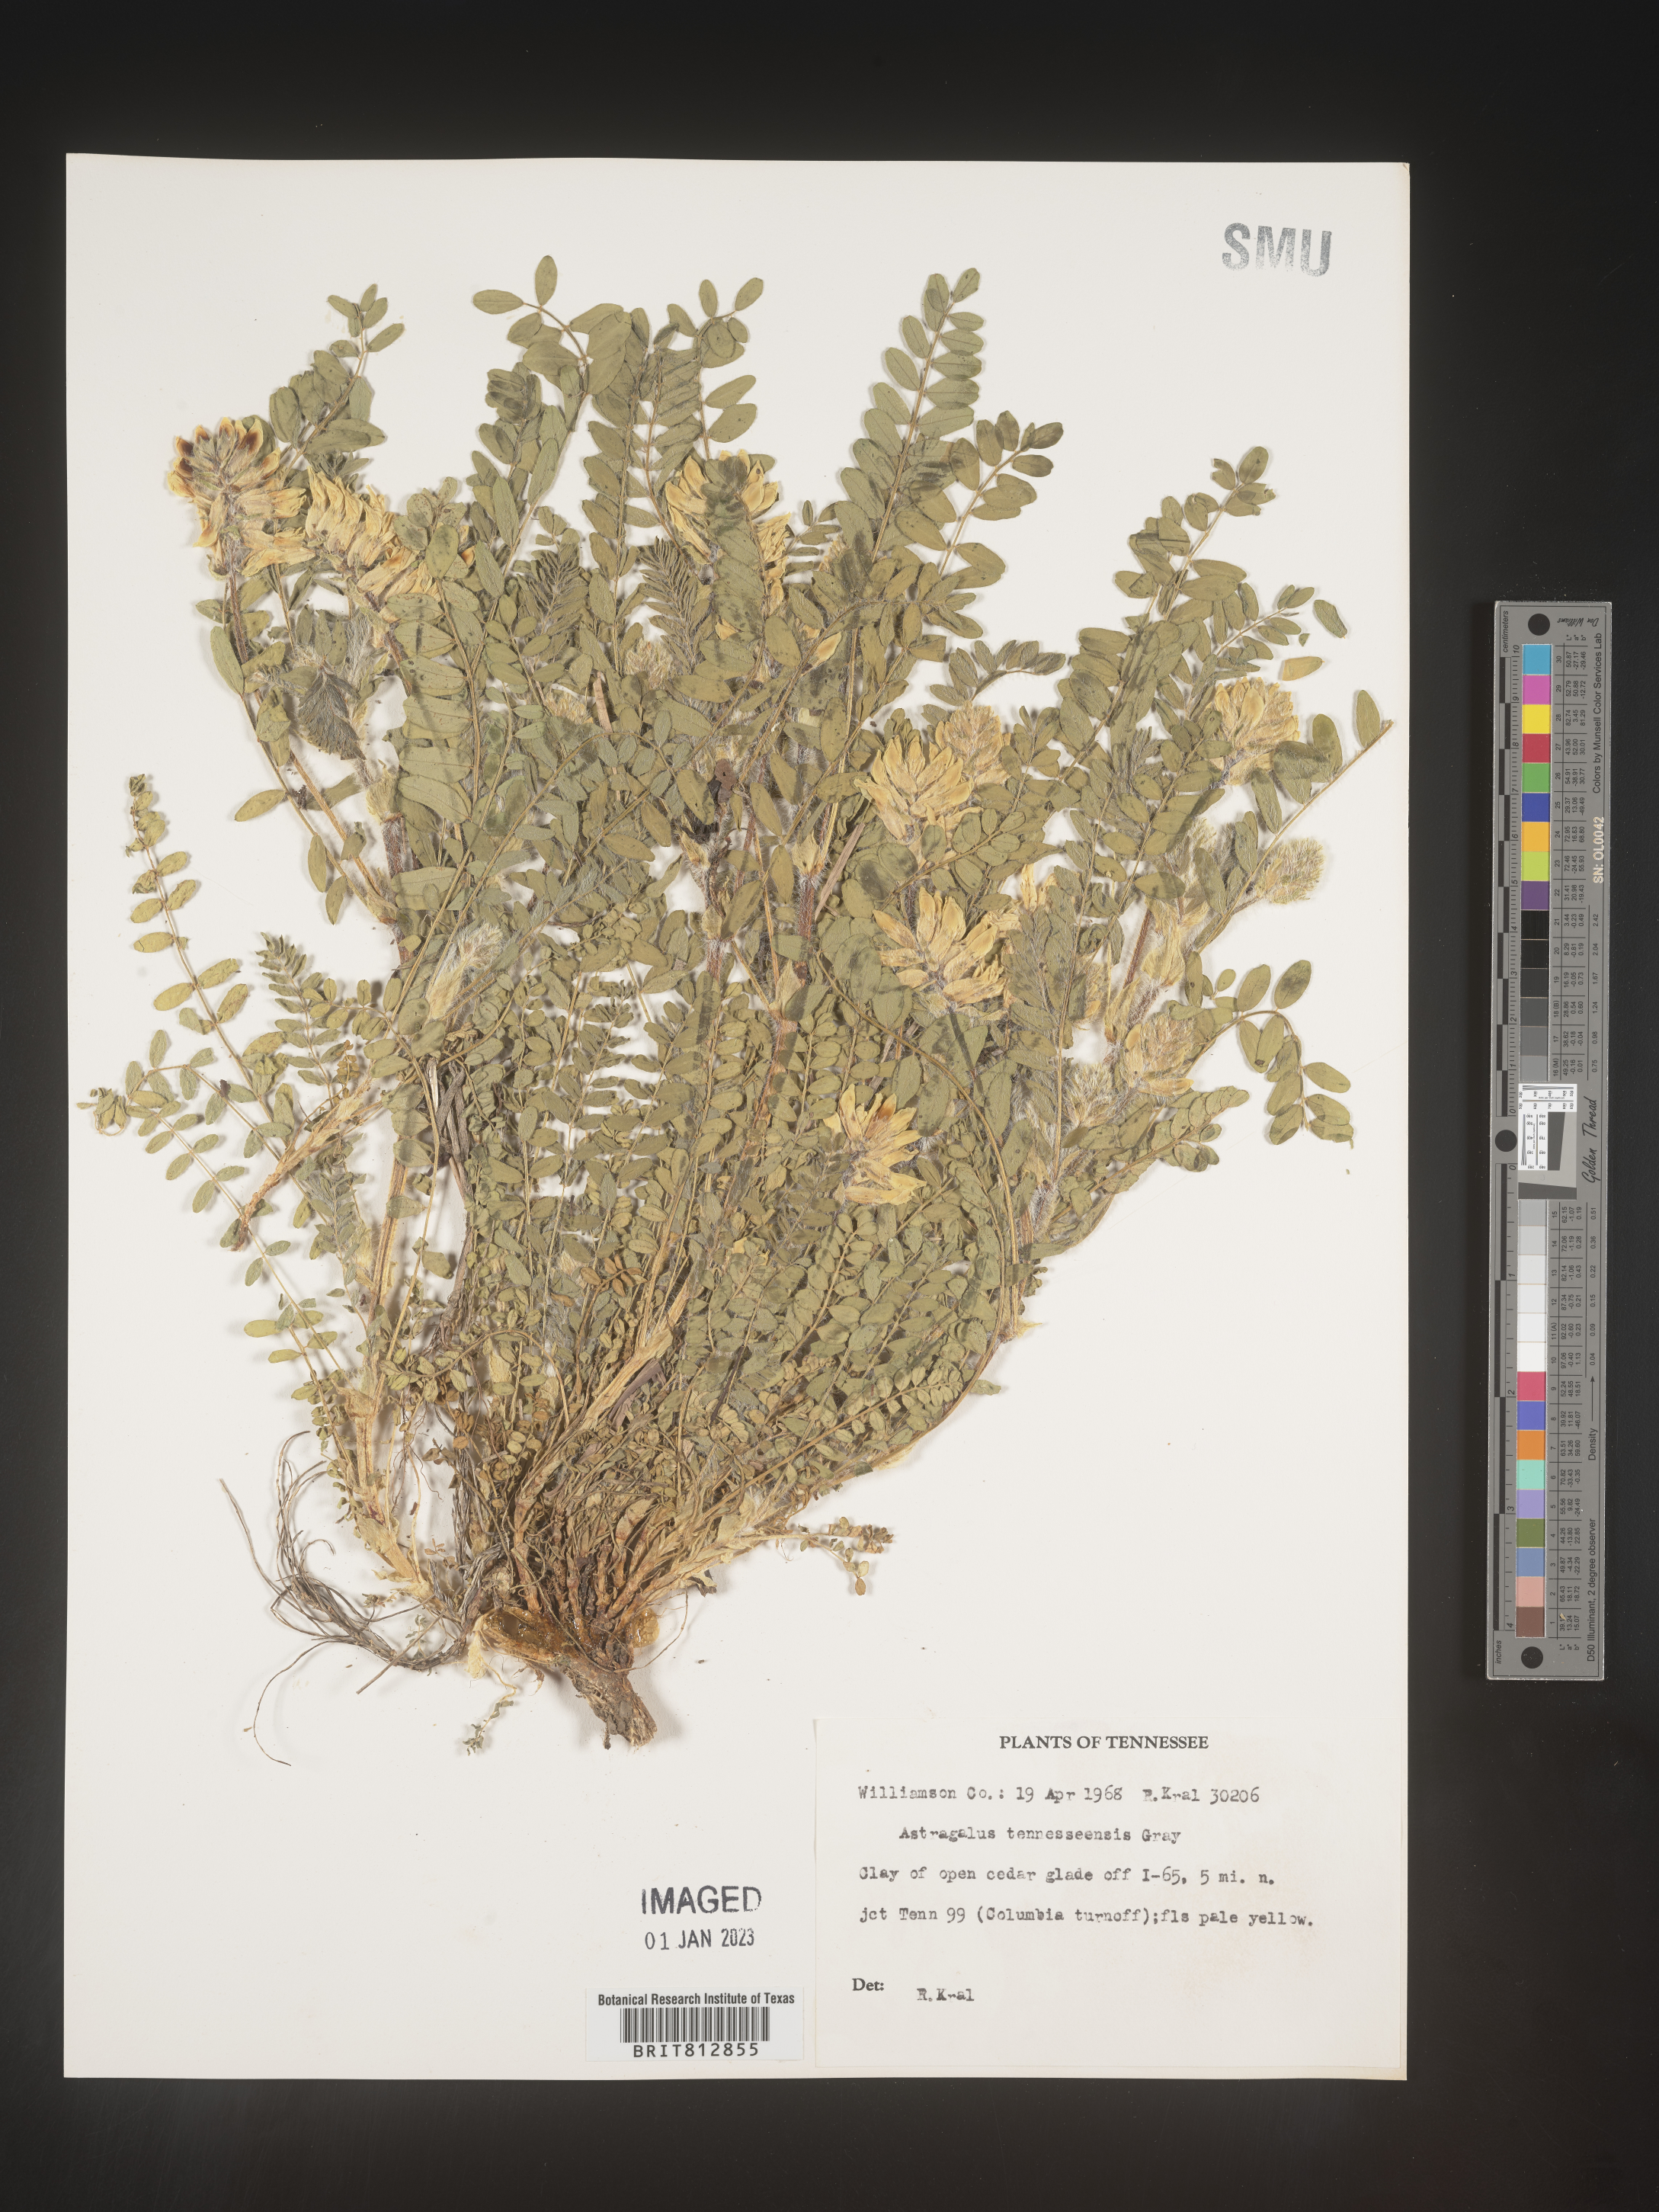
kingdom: Plantae
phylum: Tracheophyta
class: Magnoliopsida
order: Fabales
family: Fabaceae
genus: Astragalus
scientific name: Astragalus
